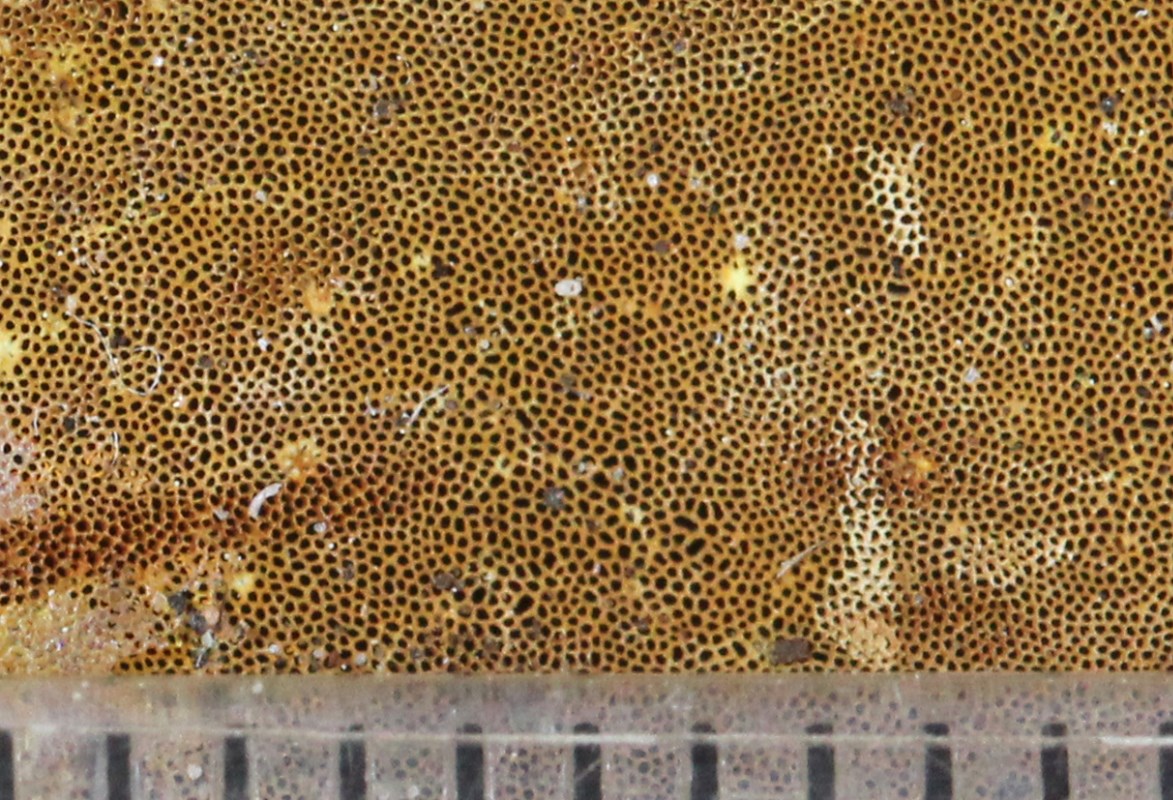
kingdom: Fungi
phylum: Basidiomycota
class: Agaricomycetes
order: Hymenochaetales
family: Hymenochaetaceae
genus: Phylloporia
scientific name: Phylloporia ribis
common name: ribs-ildporesvamp
